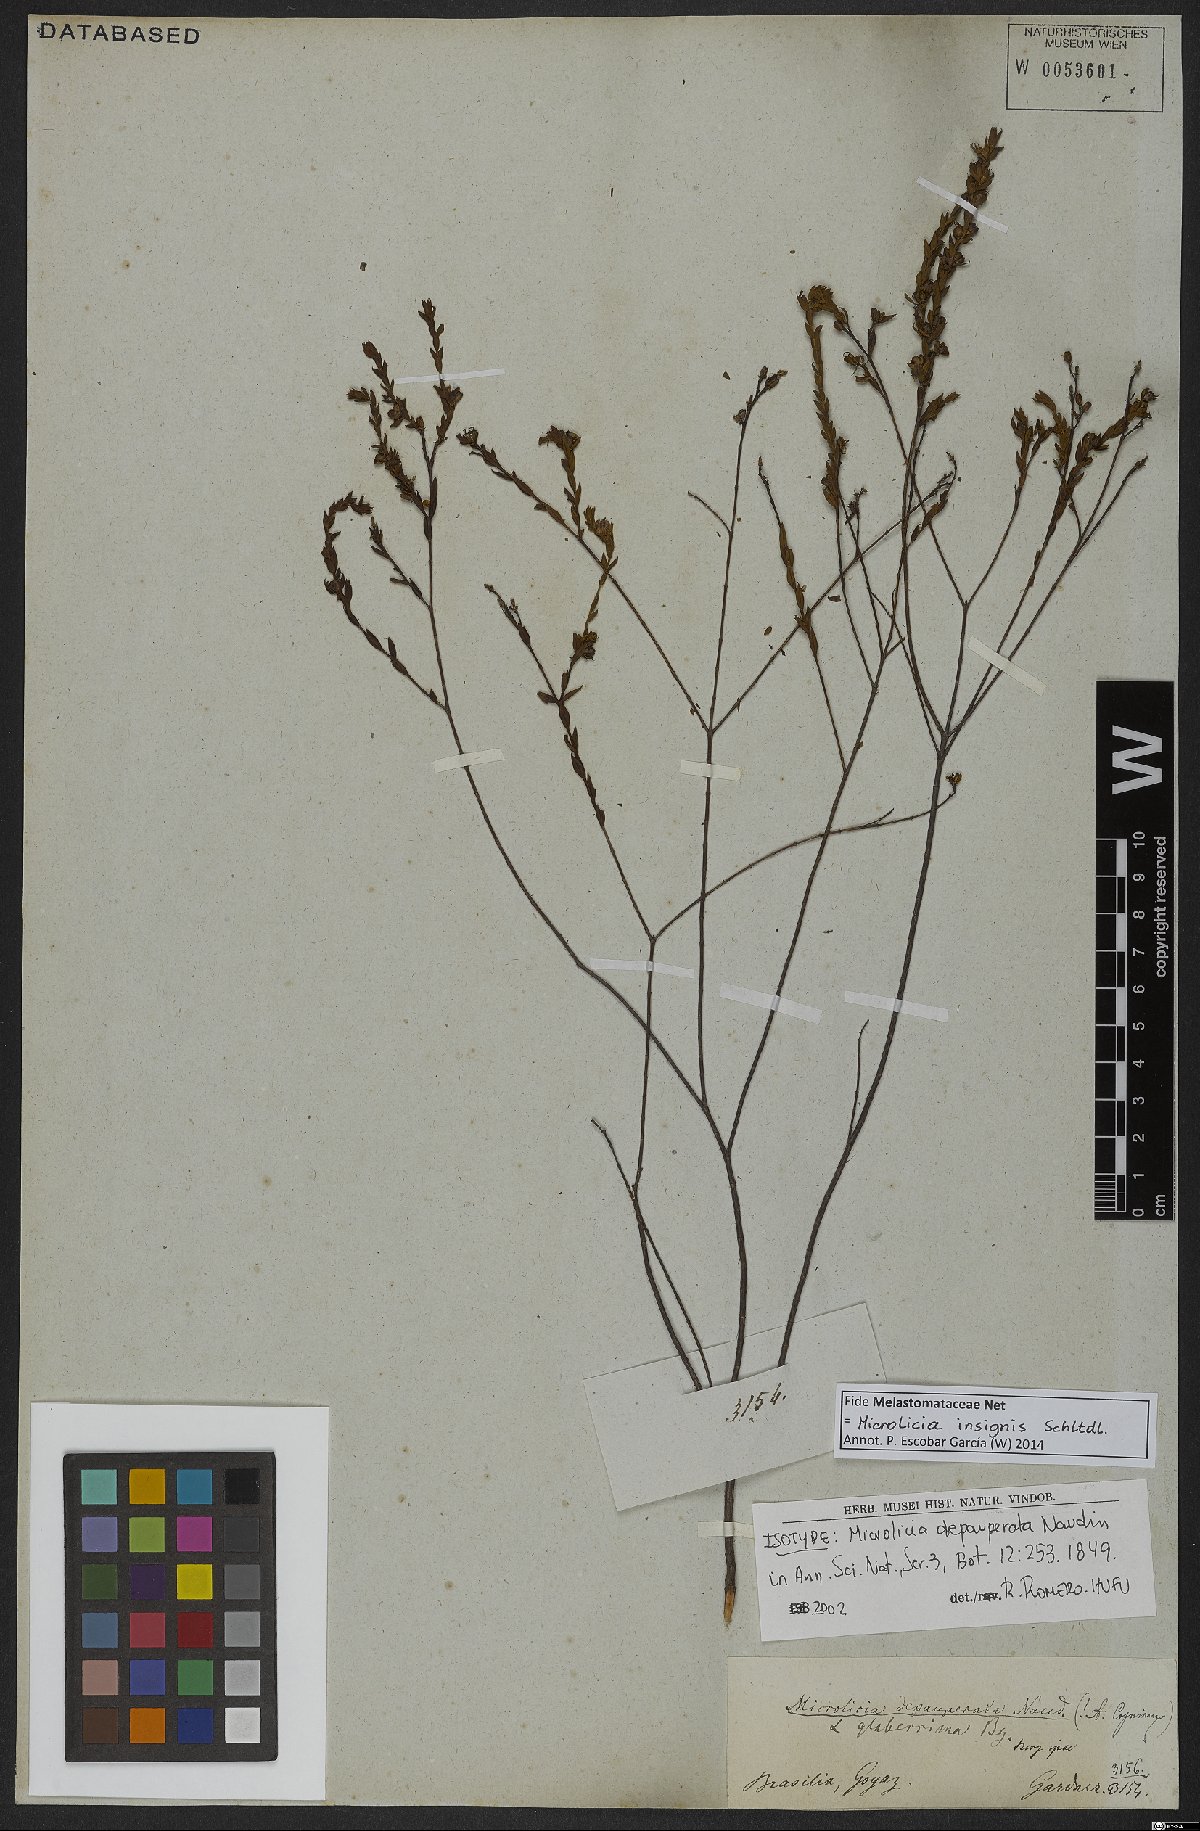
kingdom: Plantae
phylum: Tracheophyta
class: Magnoliopsida
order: Myrtales
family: Melastomataceae
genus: Microlicia
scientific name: Microlicia insignis
